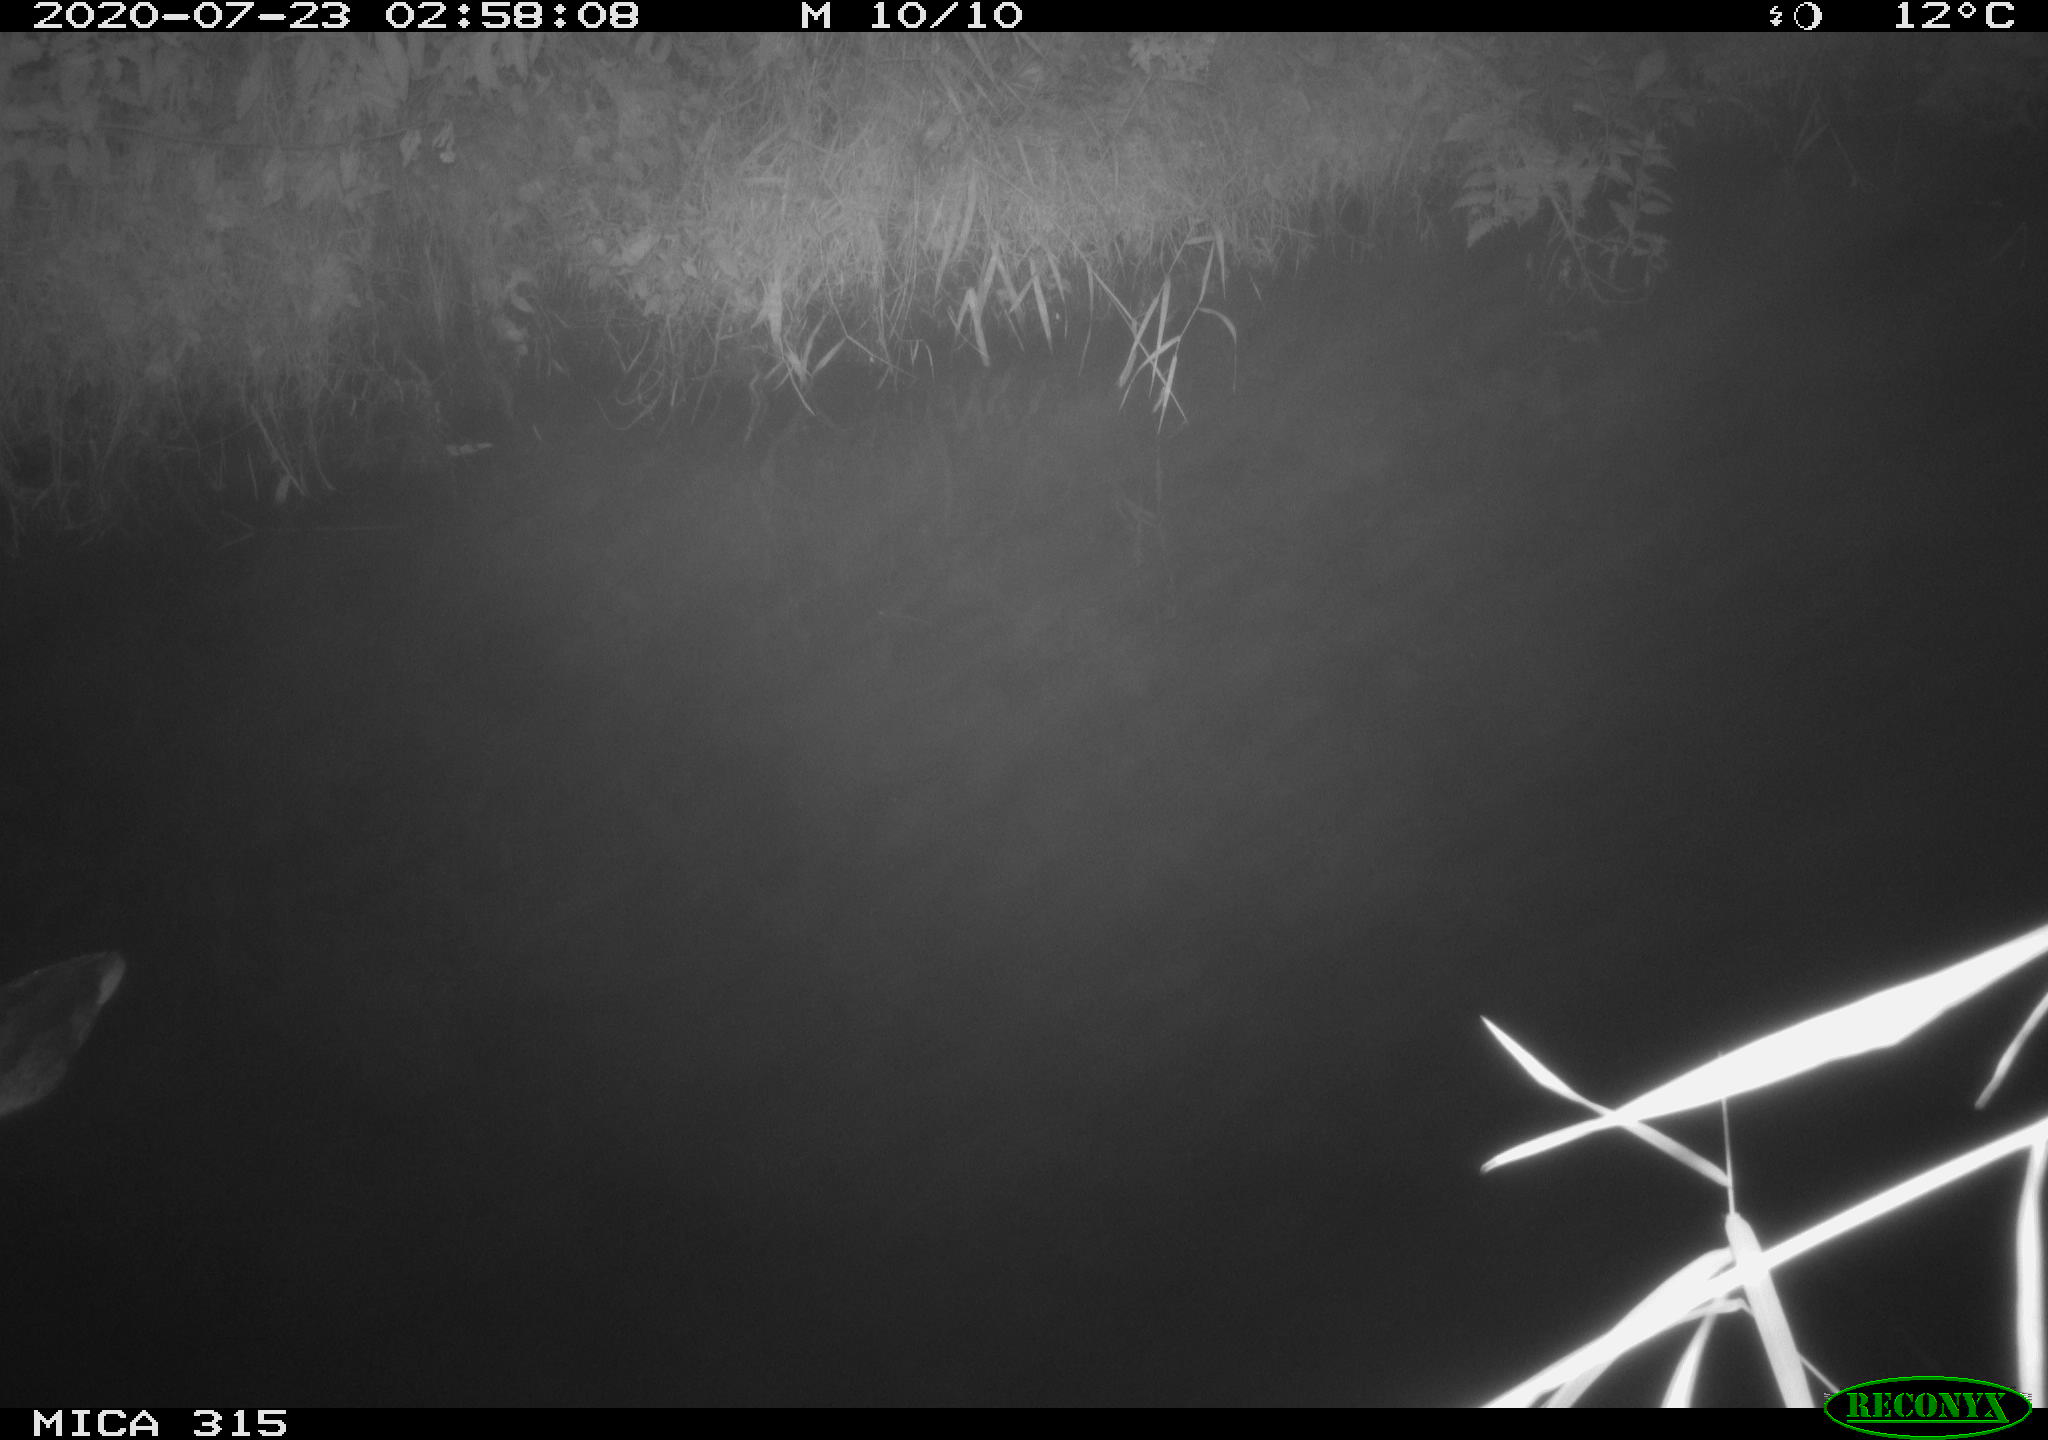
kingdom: Animalia
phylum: Chordata
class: Aves
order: Anseriformes
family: Anatidae
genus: Anas
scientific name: Anas platyrhynchos
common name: Mallard
